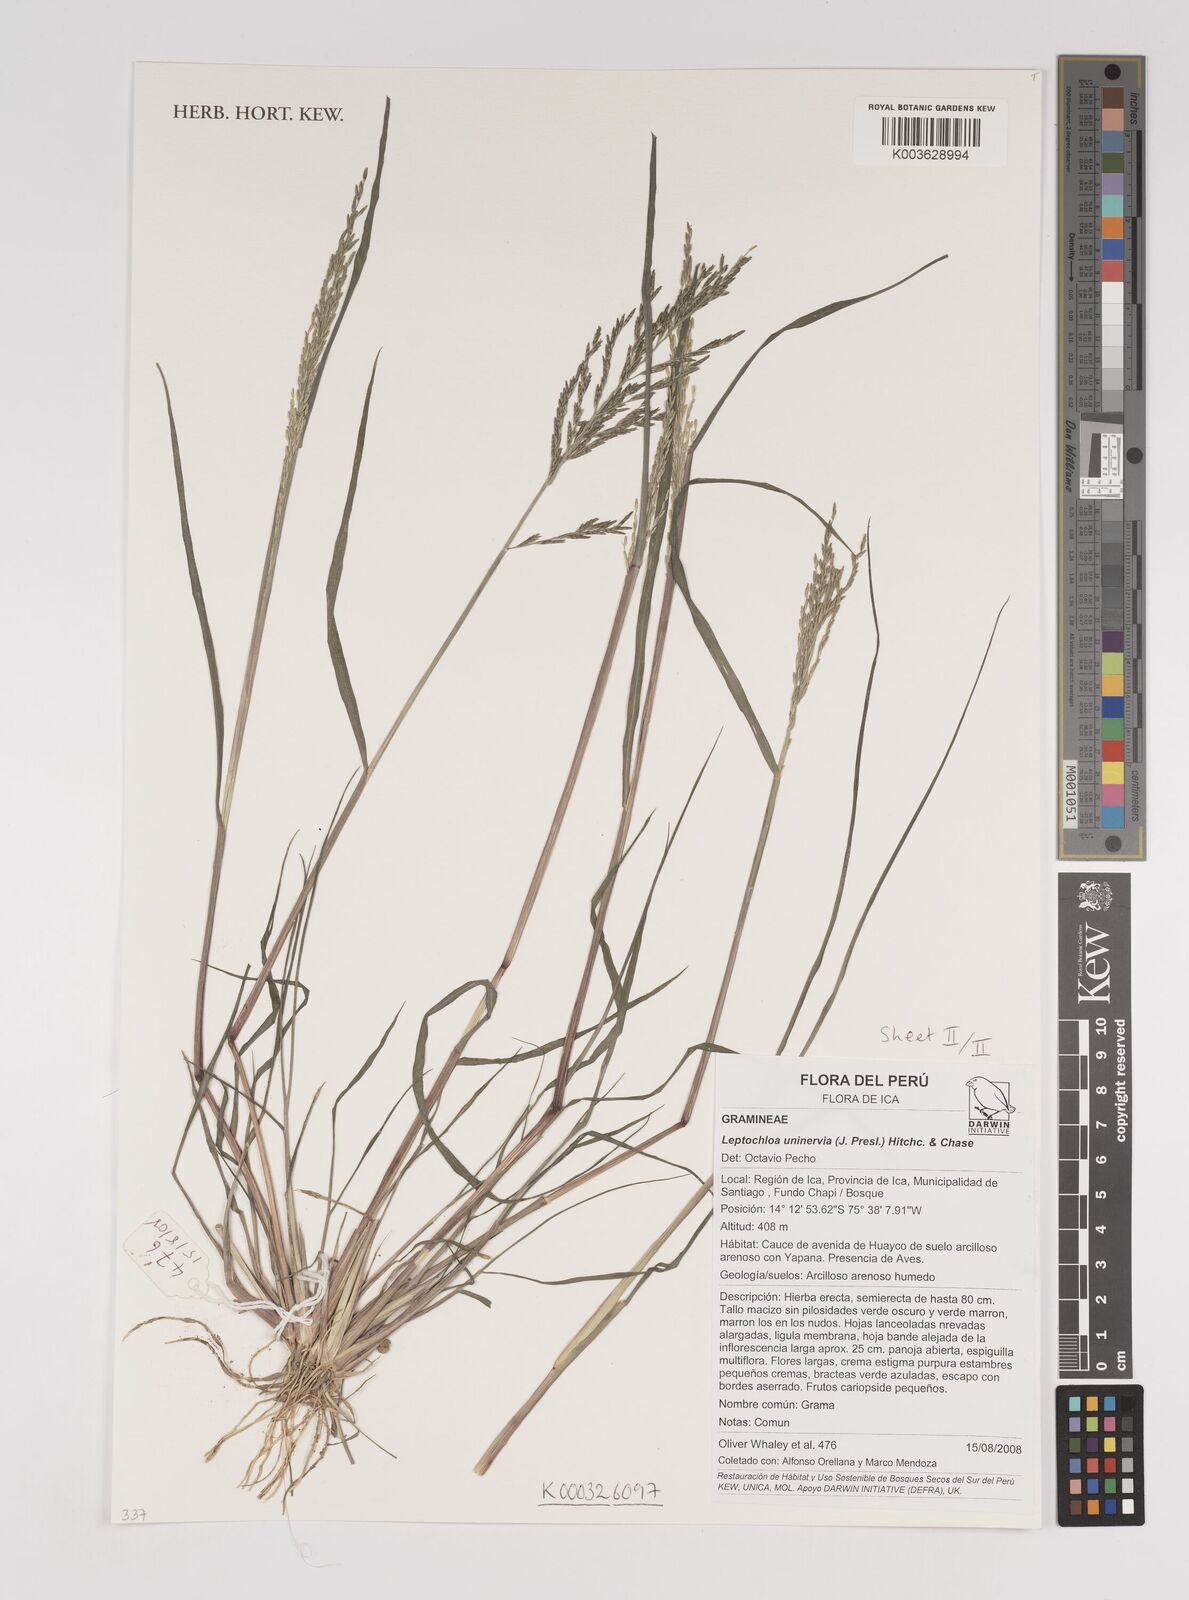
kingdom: Plantae
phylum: Tracheophyta
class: Liliopsida
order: Poales
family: Poaceae
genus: Diplachne
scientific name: Diplachne fusca
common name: Brown beetle grass
